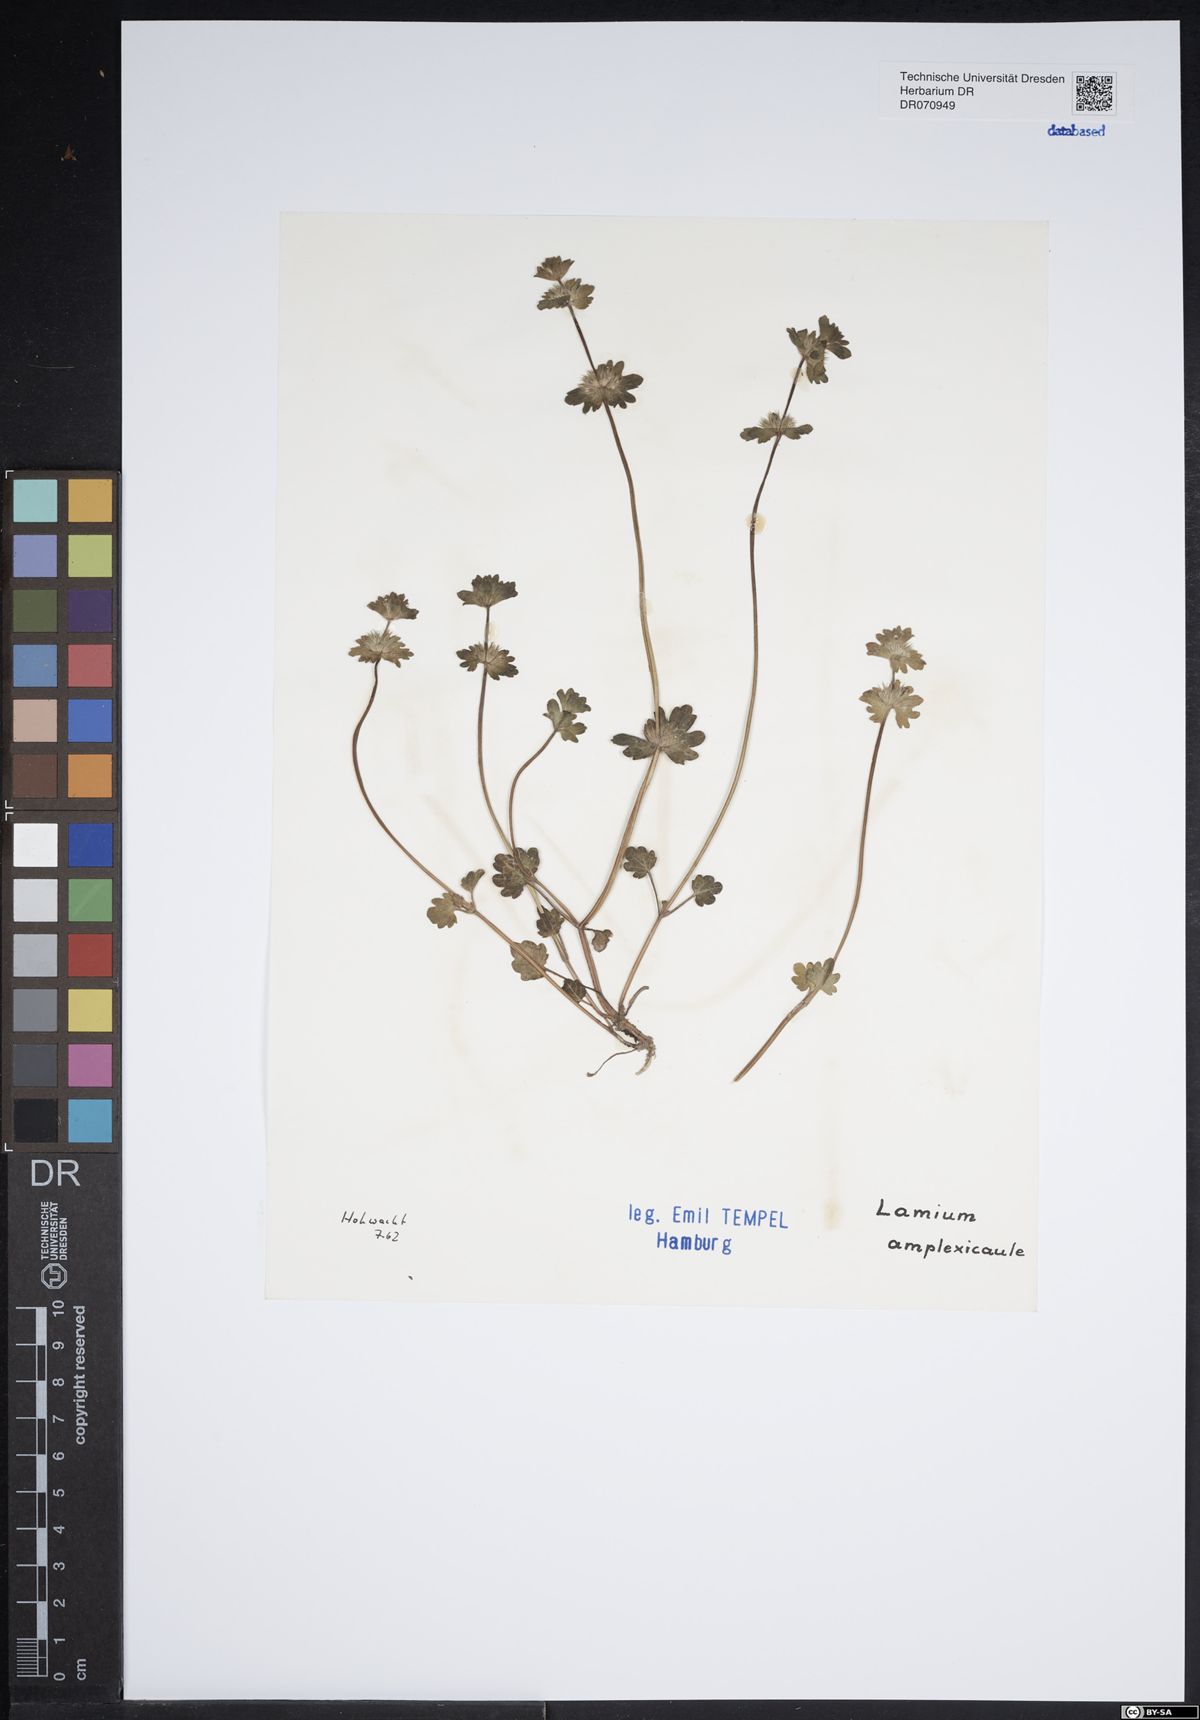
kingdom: Plantae
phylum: Tracheophyta
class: Magnoliopsida
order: Lamiales
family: Lamiaceae
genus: Lamium
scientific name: Lamium amplexicaule
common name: Henbit dead-nettle
